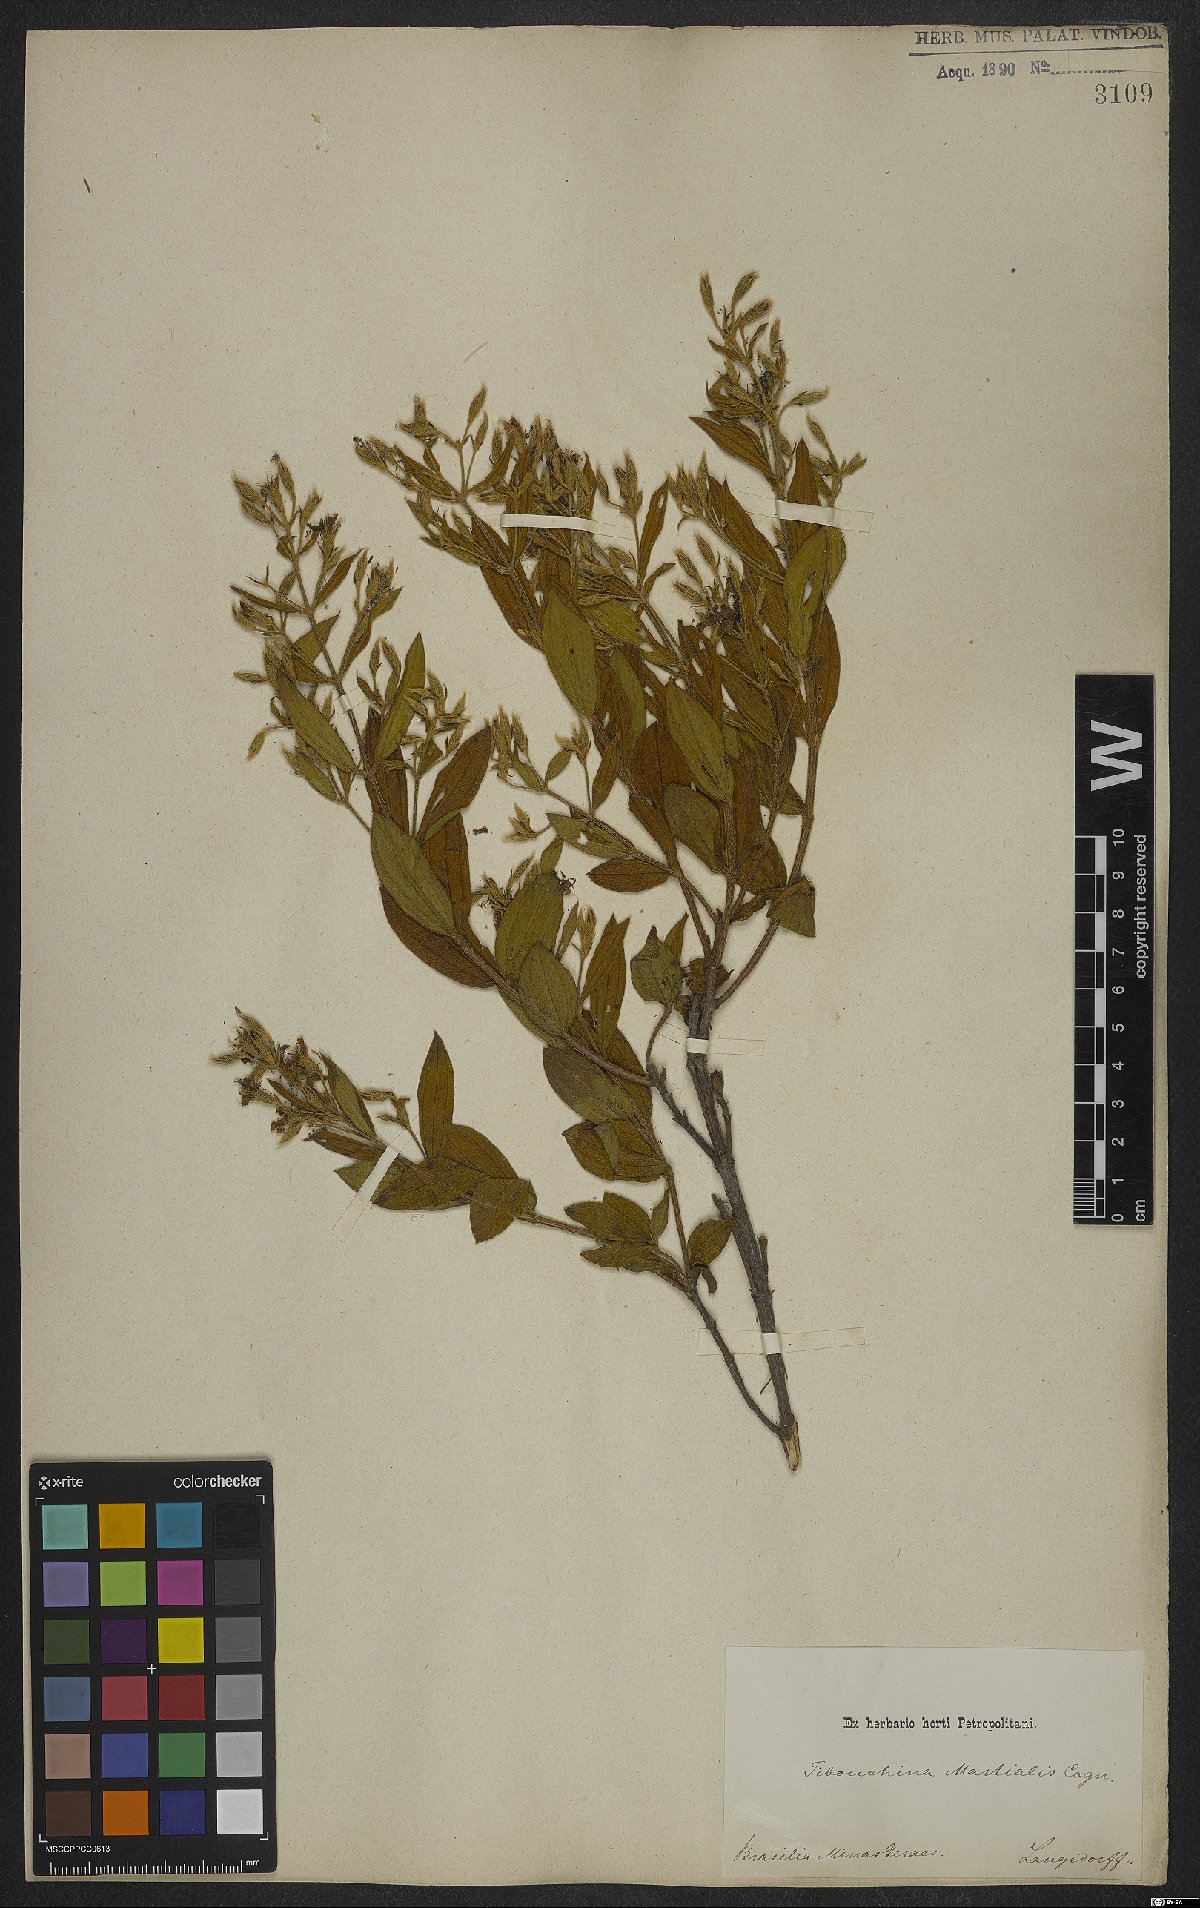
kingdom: Plantae
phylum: Tracheophyta
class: Magnoliopsida
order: Myrtales
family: Melastomataceae
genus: Pleroma
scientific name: Pleroma martiale
